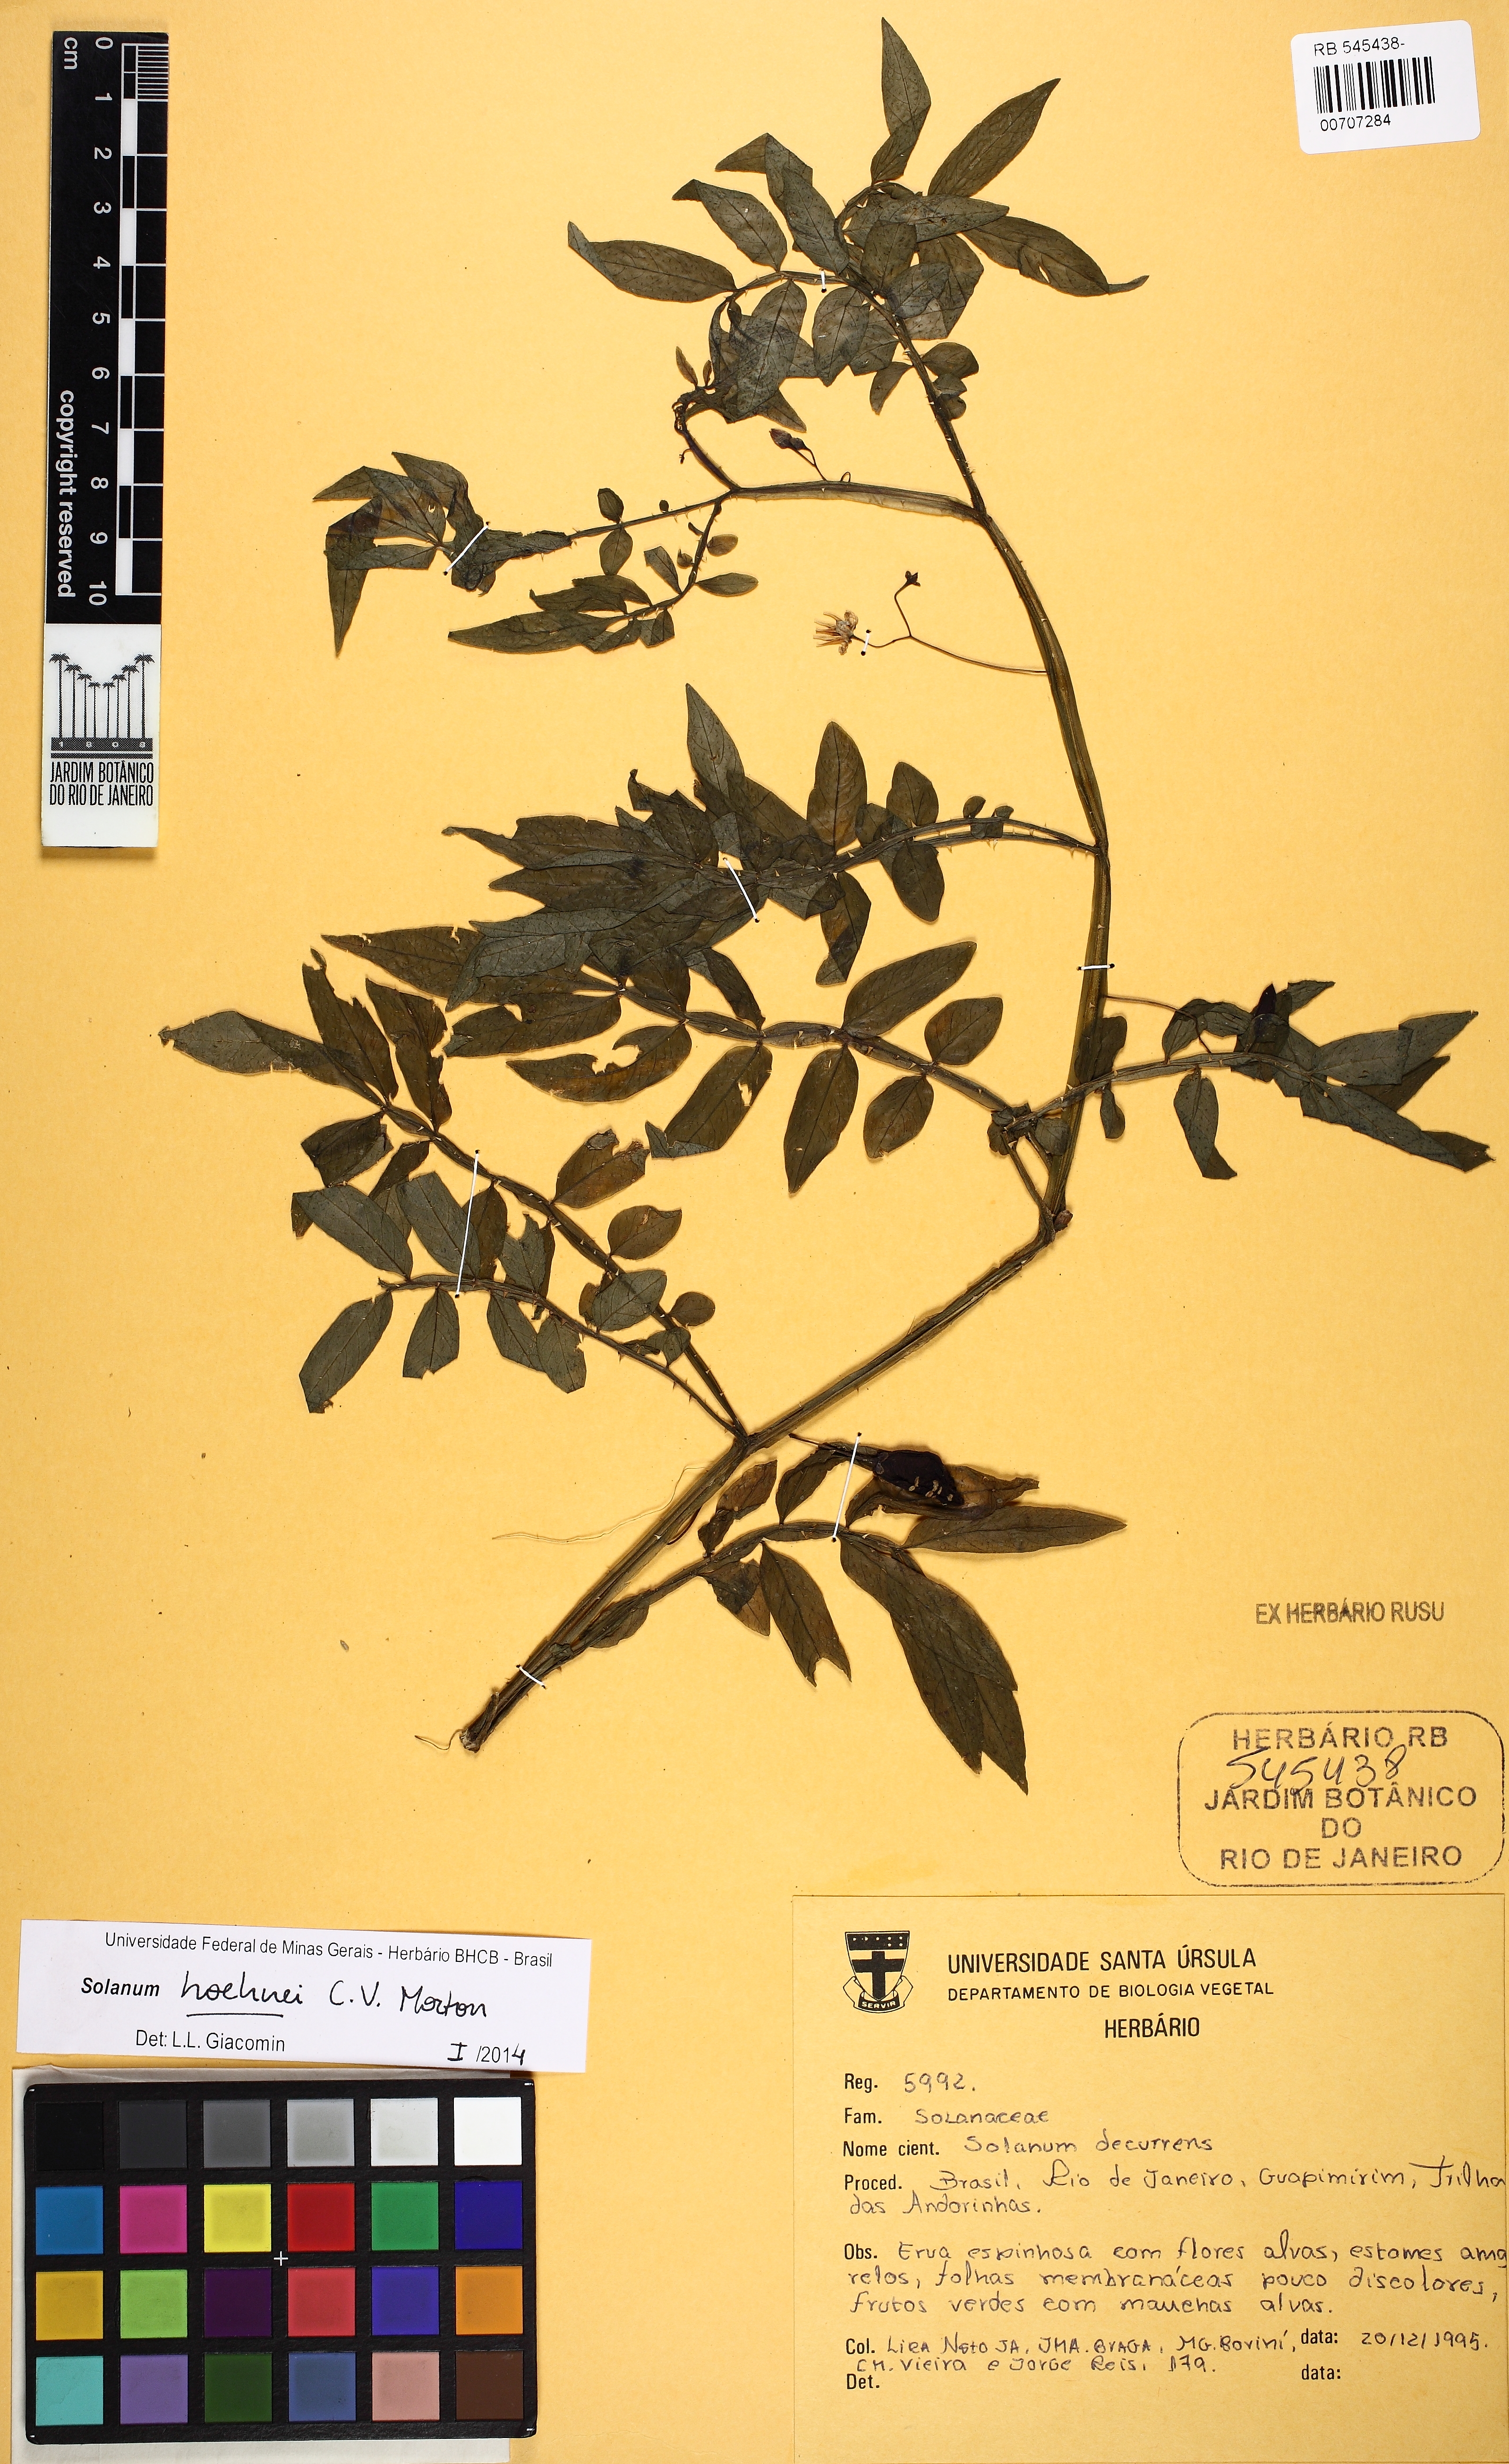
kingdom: Plantae
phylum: Tracheophyta
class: Magnoliopsida
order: Solanales
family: Solanaceae
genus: Solanum
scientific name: Solanum hoehnei
